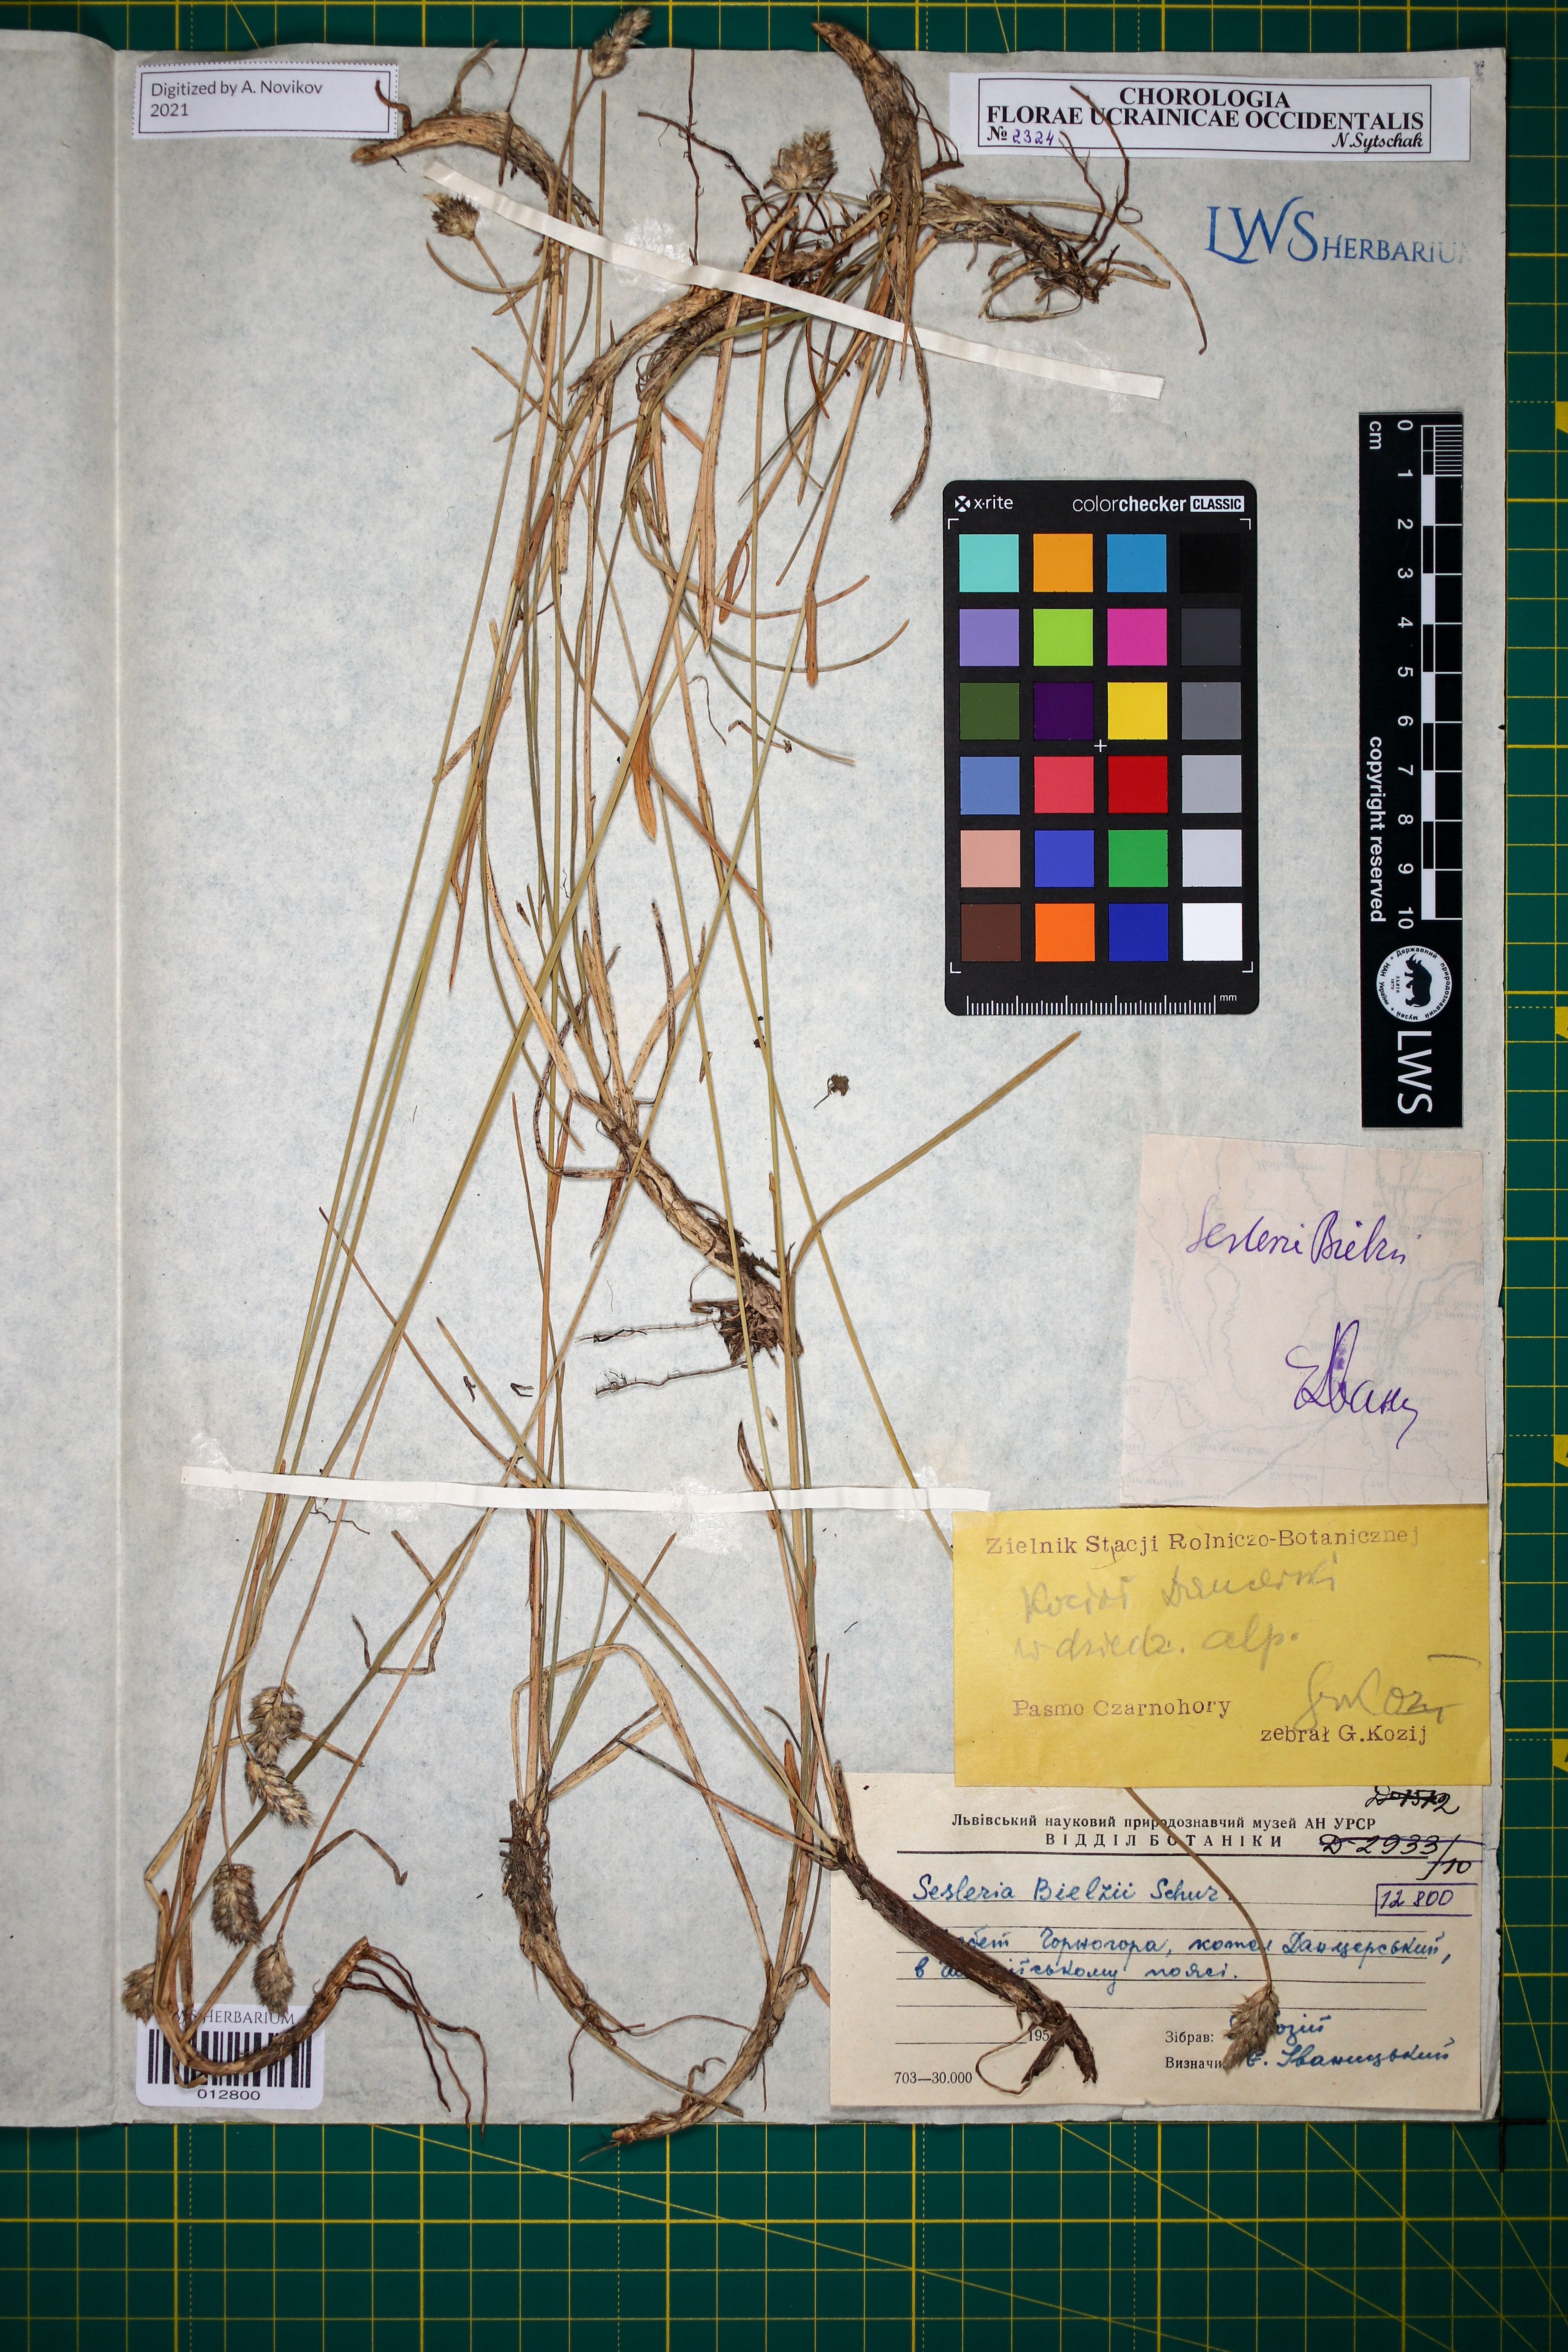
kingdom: Plantae
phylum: Tracheophyta
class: Liliopsida
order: Poales
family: Poaceae
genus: Sesleria
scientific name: Sesleria bielzii
